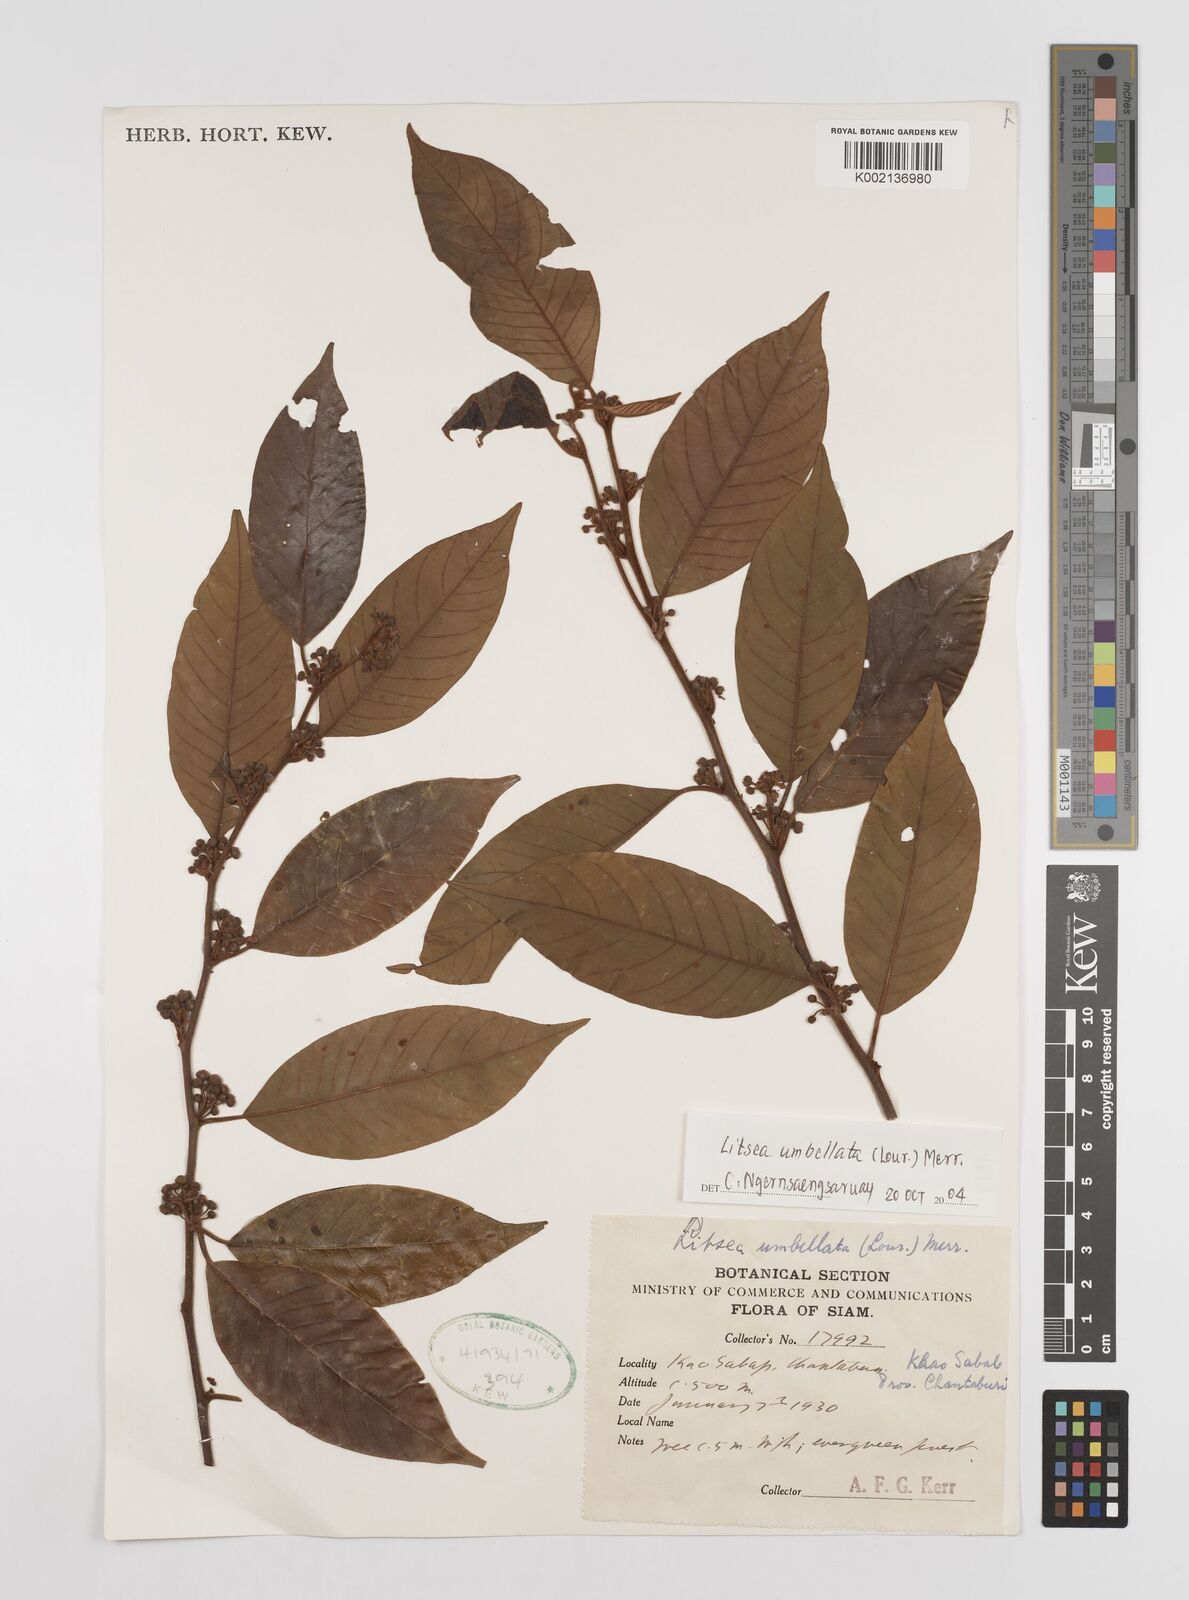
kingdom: Plantae
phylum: Tracheophyta
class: Magnoliopsida
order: Laurales
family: Lauraceae
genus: Litsea
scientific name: Litsea umbellata
